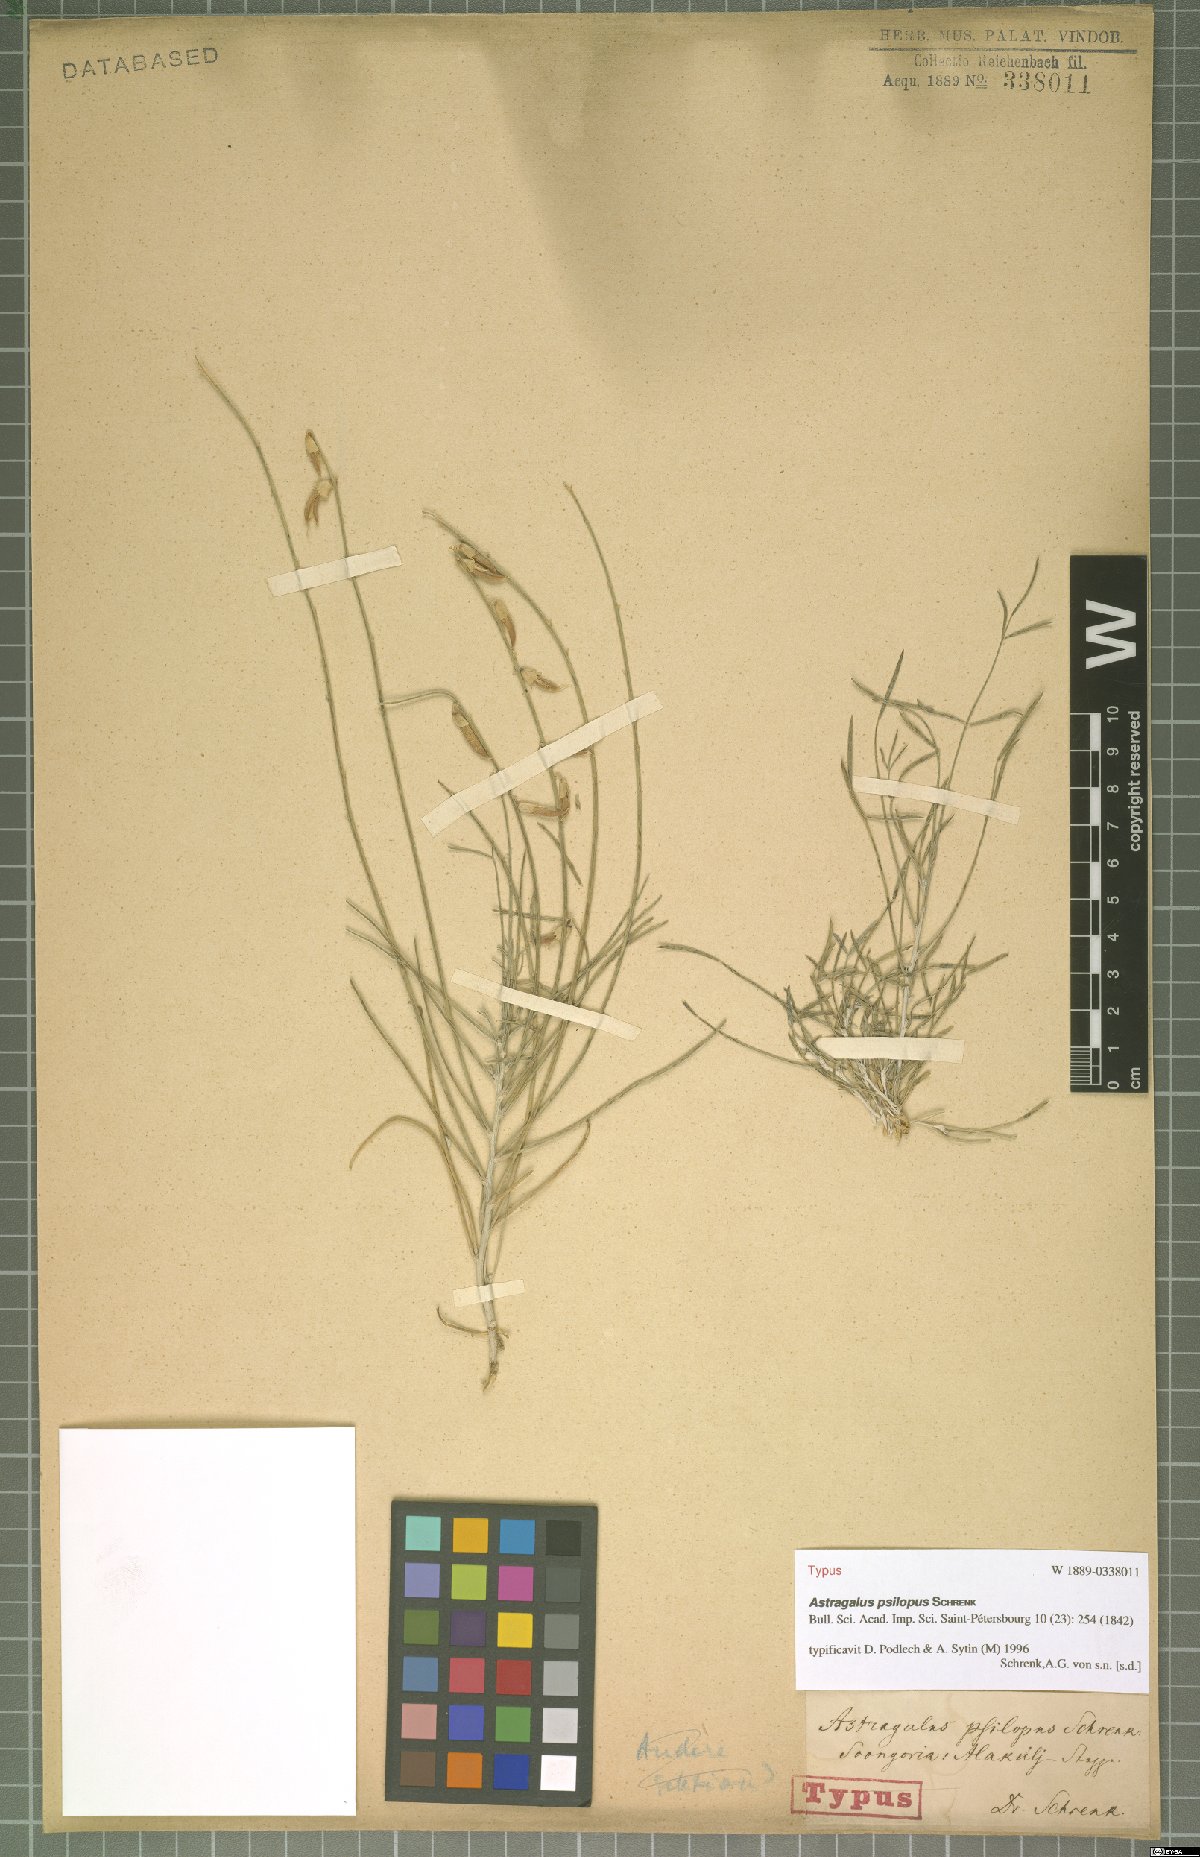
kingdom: Plantae
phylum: Tracheophyta
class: Magnoliopsida
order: Fabales
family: Fabaceae
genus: Astragalus
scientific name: Astragalus psilopus
